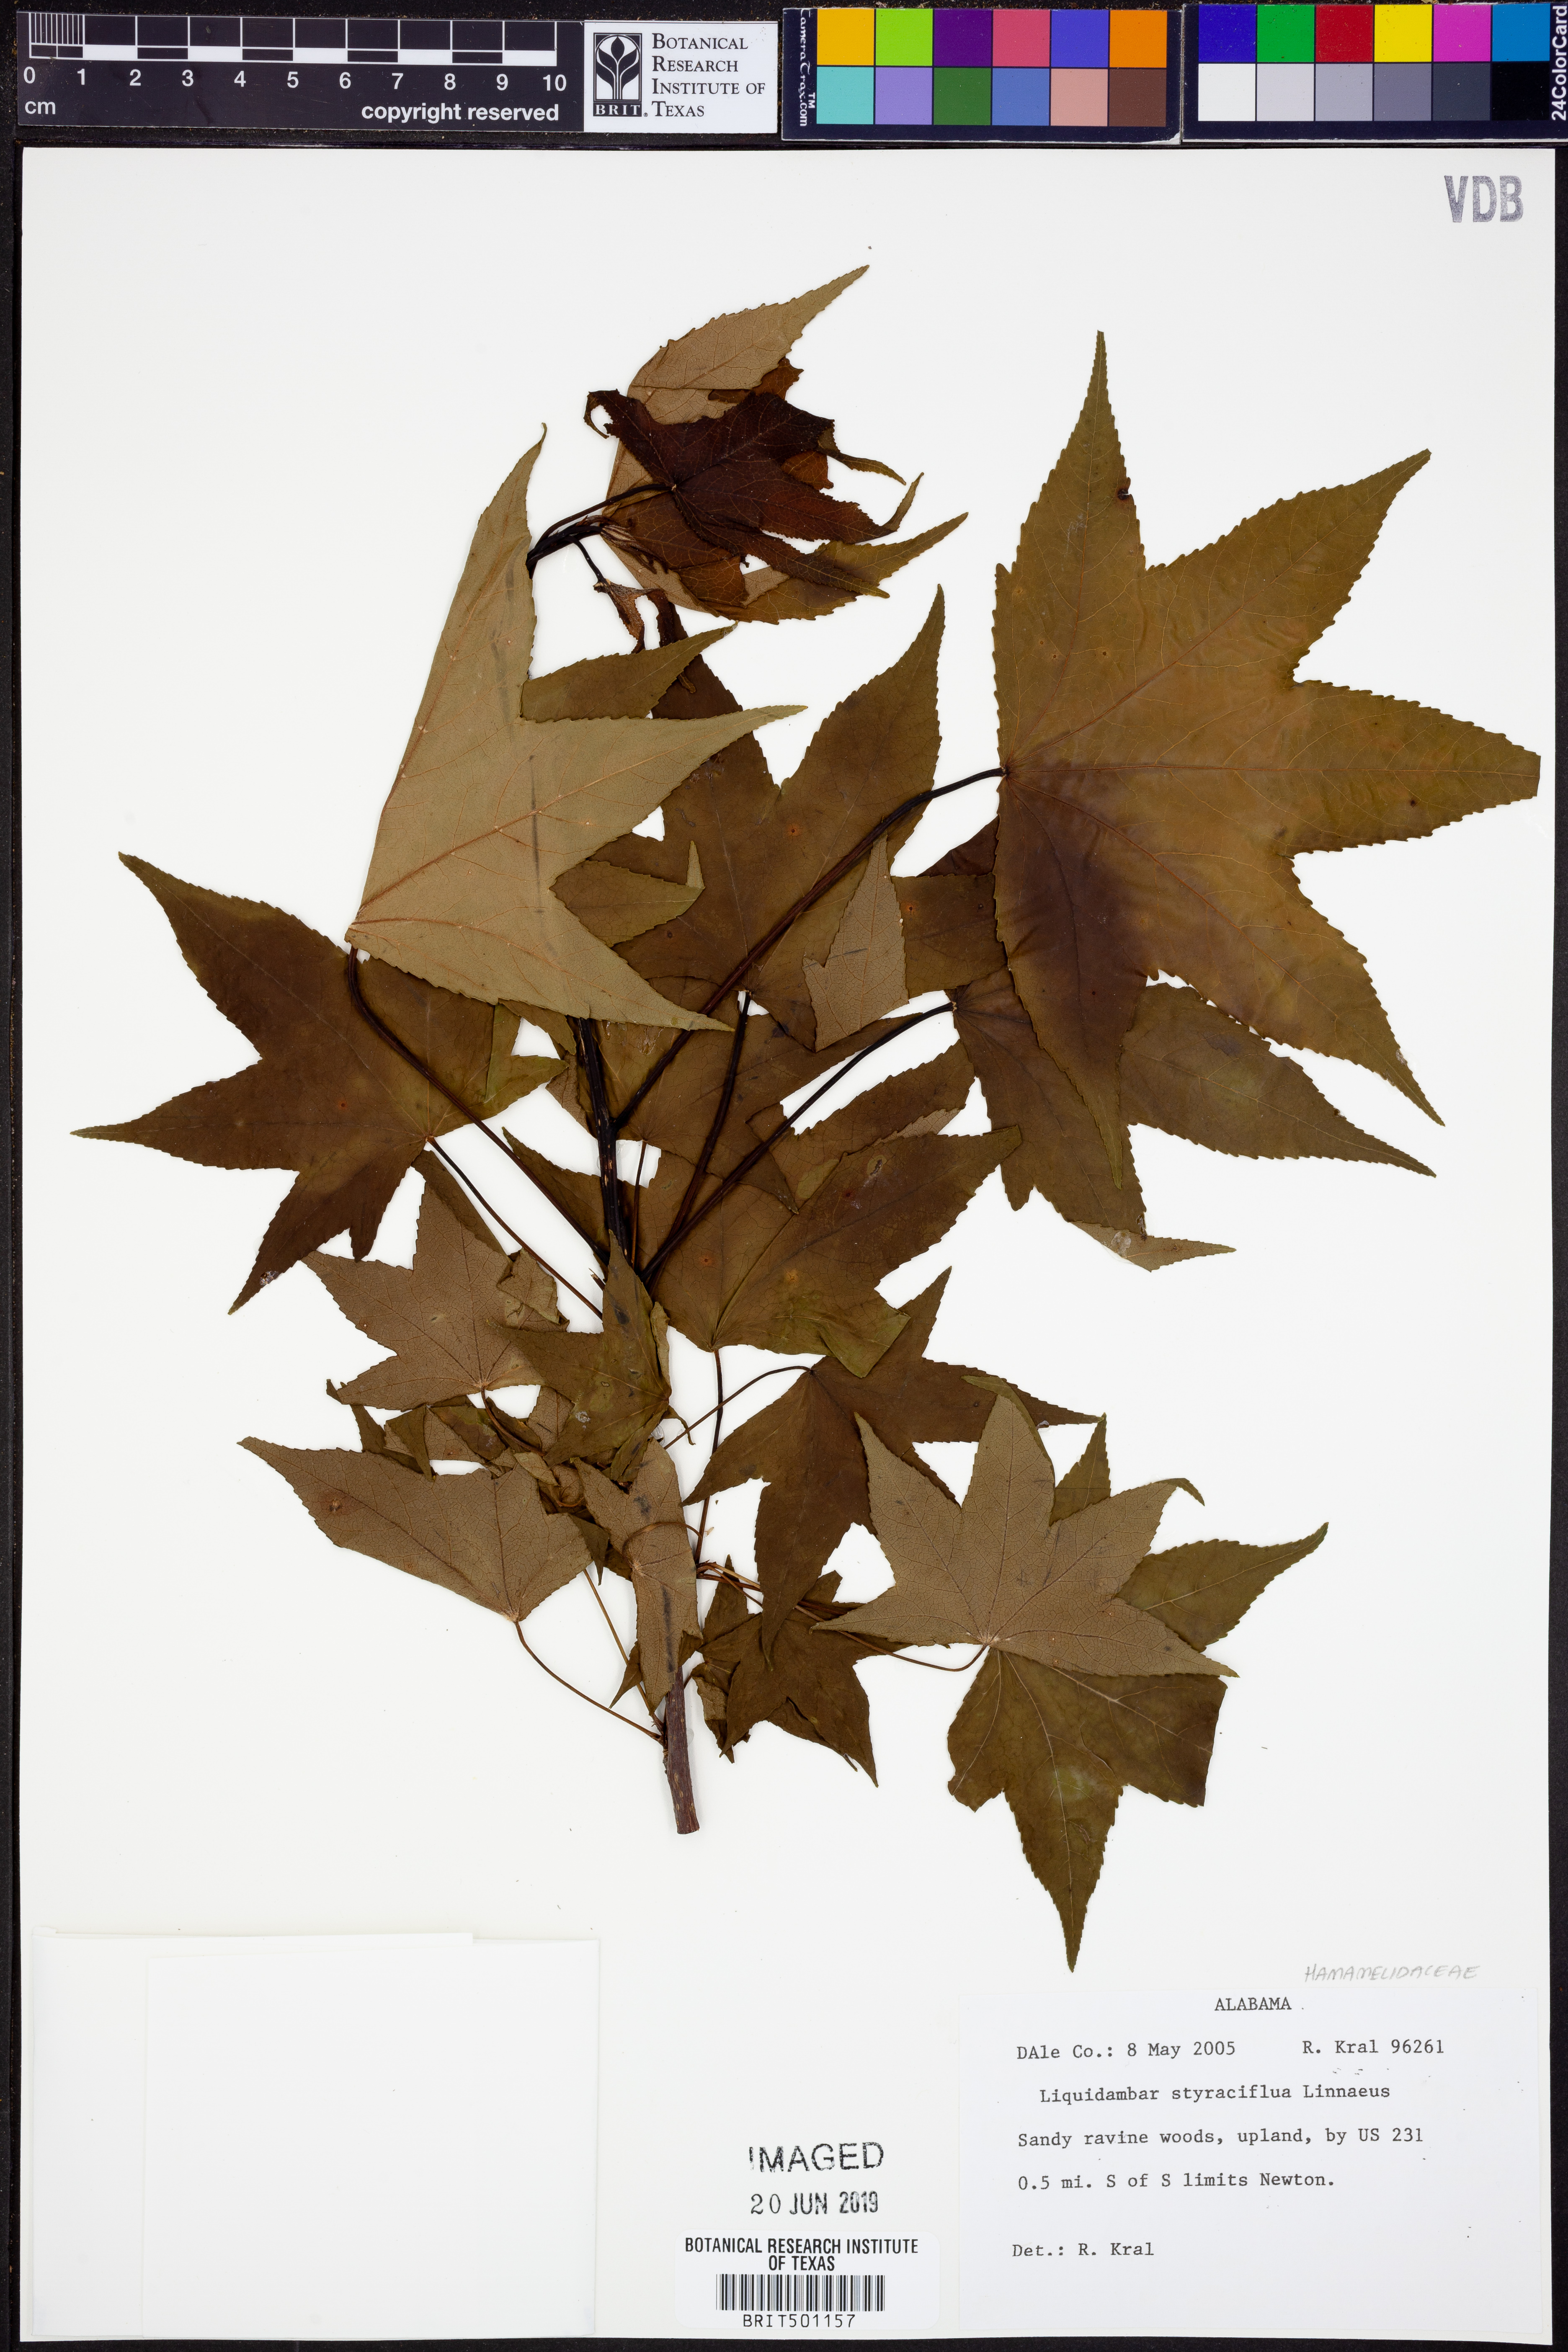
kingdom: Plantae
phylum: Tracheophyta
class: Magnoliopsida
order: Saxifragales
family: Altingiaceae
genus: Liquidambar
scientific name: Liquidambar styraciflua
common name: Sweet gum
